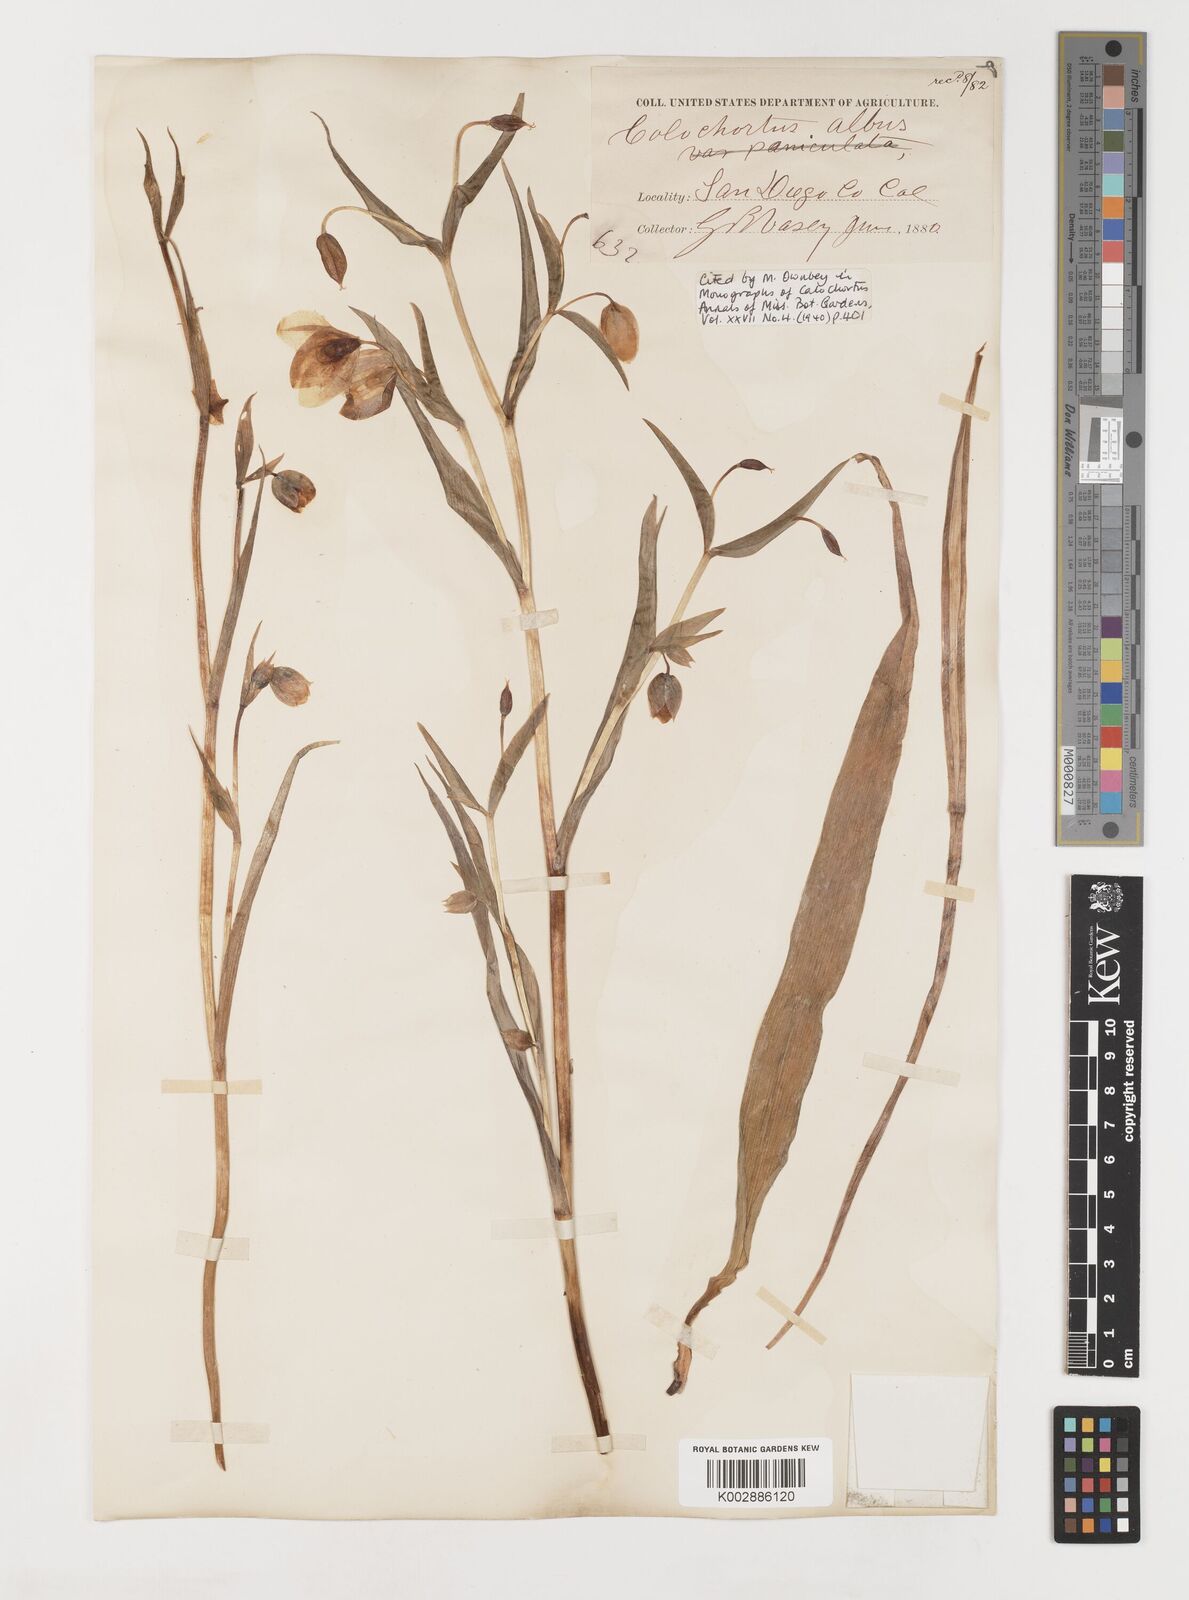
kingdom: Plantae
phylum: Tracheophyta
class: Liliopsida
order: Liliales
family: Liliaceae
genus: Calochortus
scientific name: Calochortus albus
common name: Fairy-lantern
